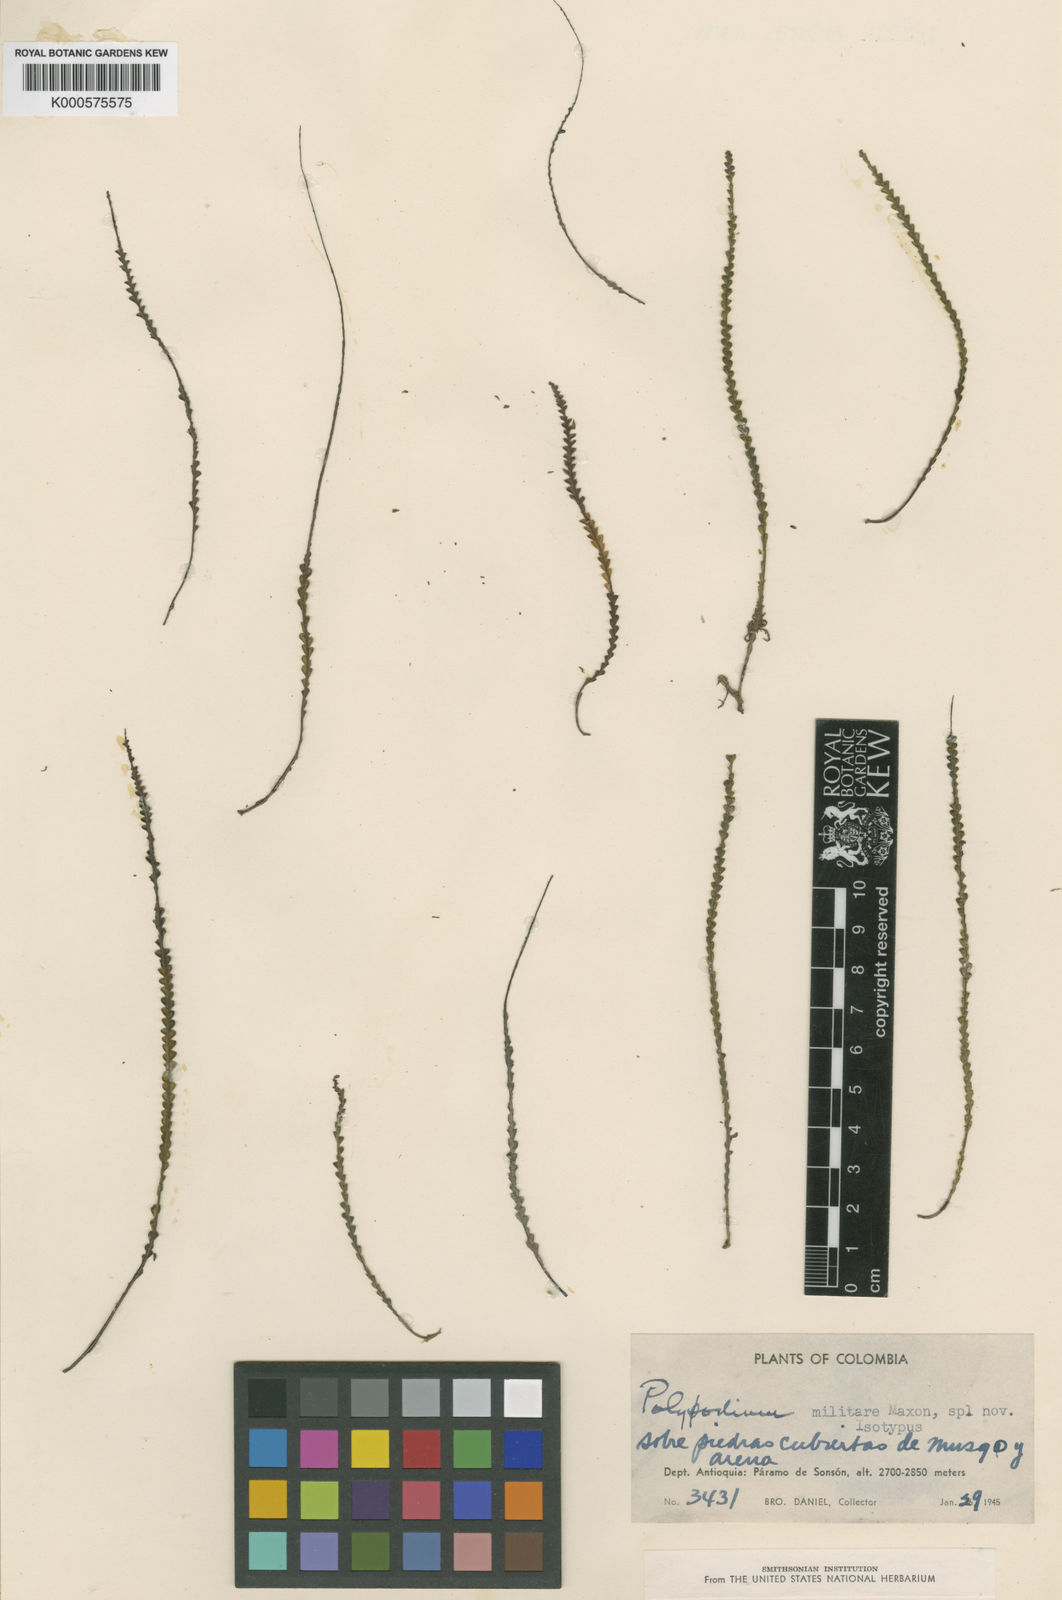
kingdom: Plantae
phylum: Tracheophyta
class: Polypodiopsida
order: Polypodiales
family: Polypodiaceae
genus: Lellingeria
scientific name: Lellingeria militaris
